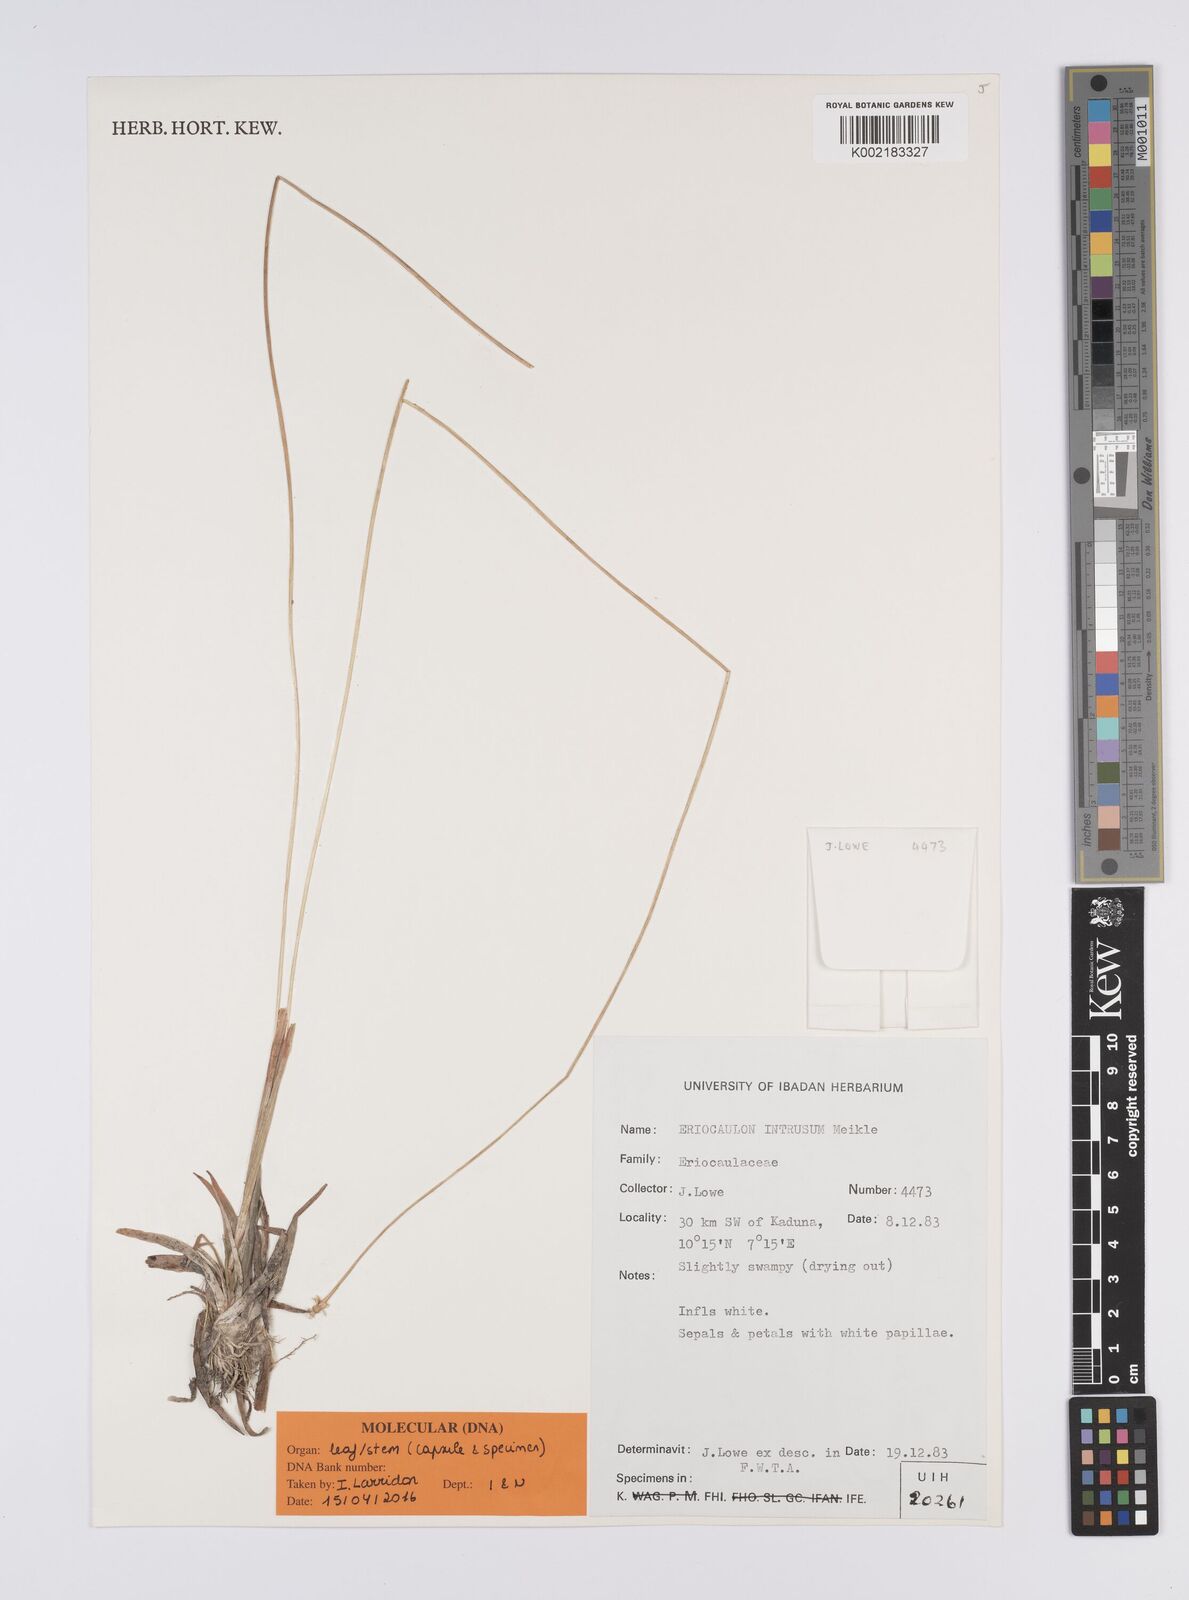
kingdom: Plantae
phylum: Tracheophyta
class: Liliopsida
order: Poales
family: Eriocaulaceae
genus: Eriocaulon
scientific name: Eriocaulon teusczii
